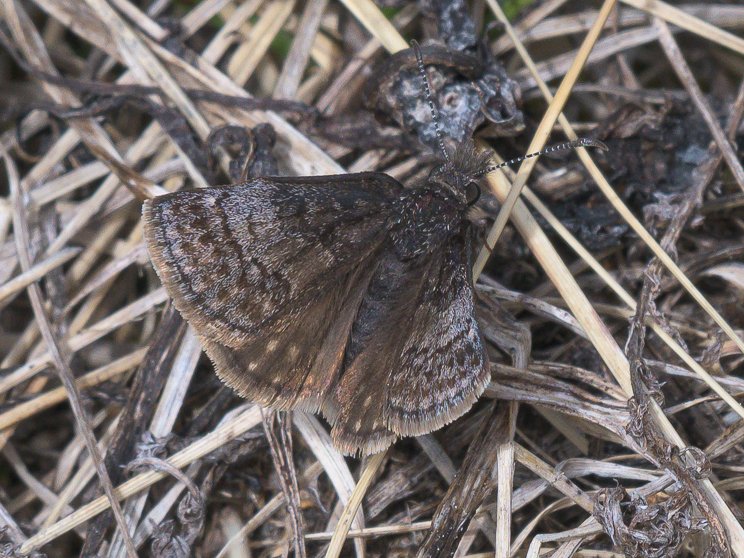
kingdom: Animalia
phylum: Arthropoda
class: Insecta
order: Lepidoptera
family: Hesperiidae
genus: Erynnis
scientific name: Erynnis icelus
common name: Dreamy Duskywing
